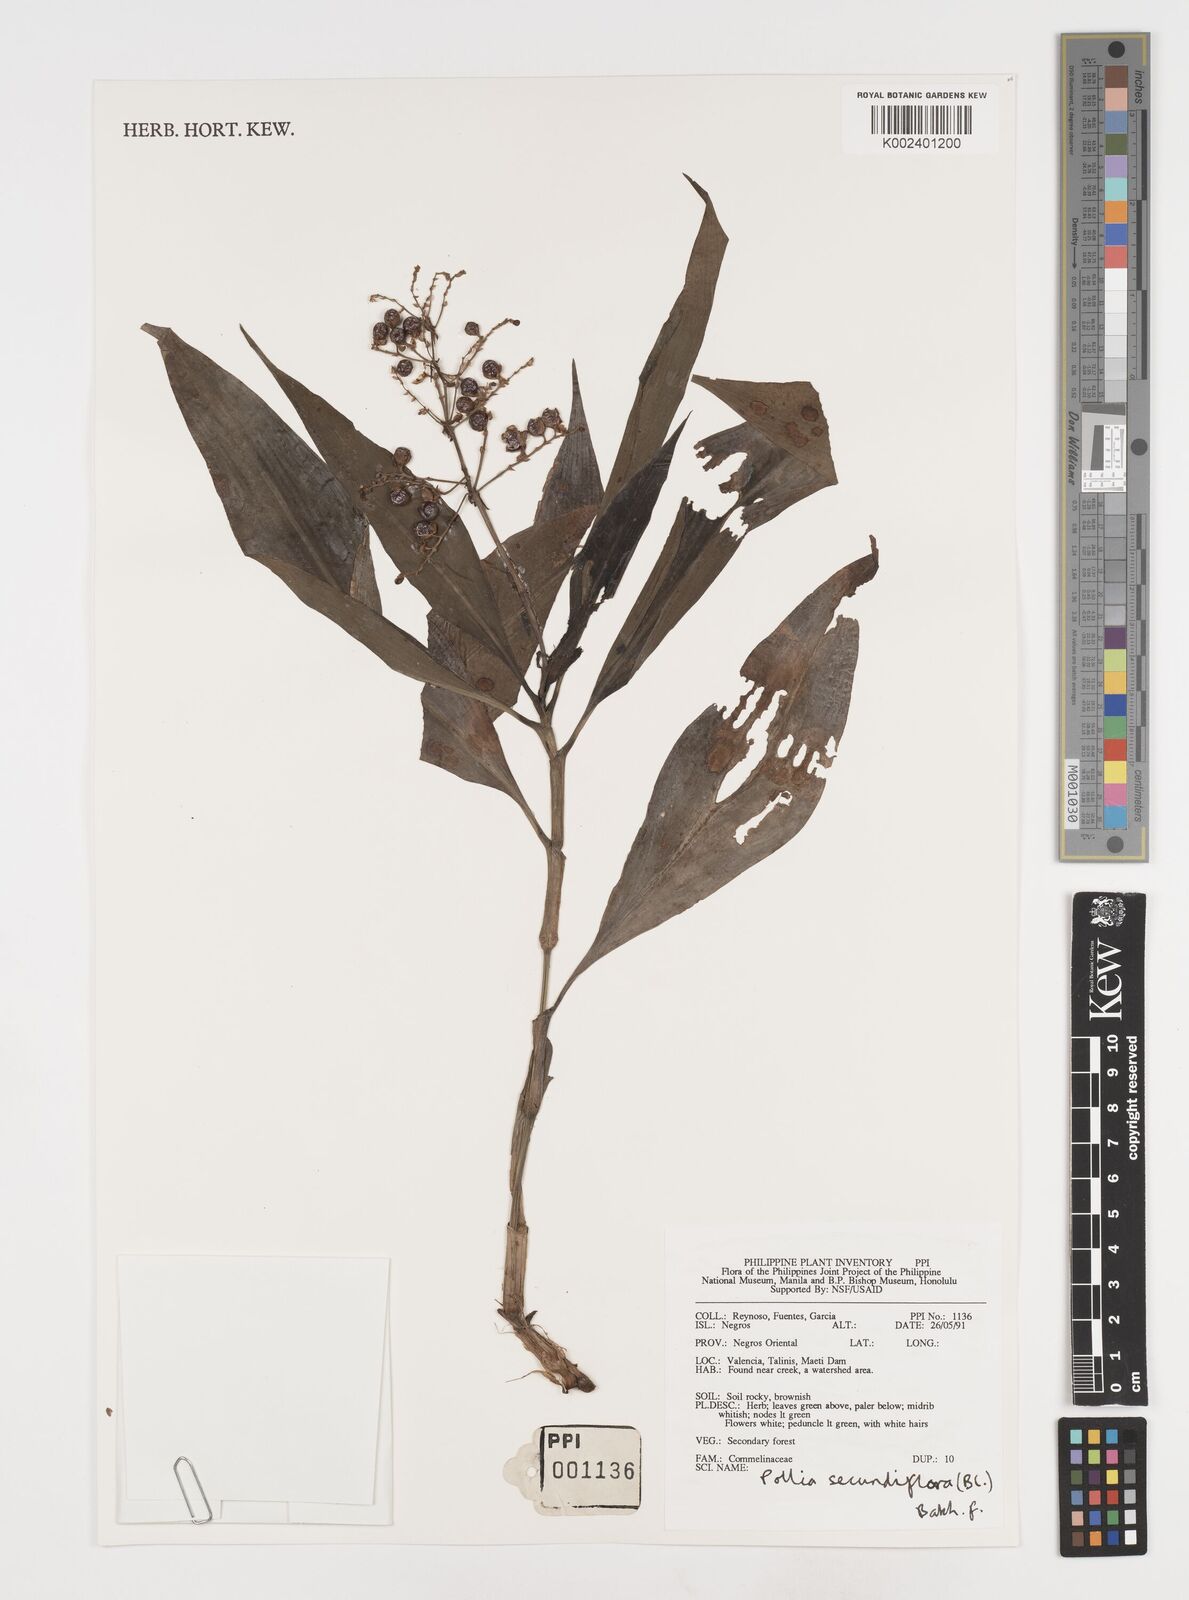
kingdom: Plantae
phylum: Tracheophyta
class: Liliopsida
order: Commelinales
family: Commelinaceae
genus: Pollia
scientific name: Pollia secundiflora
